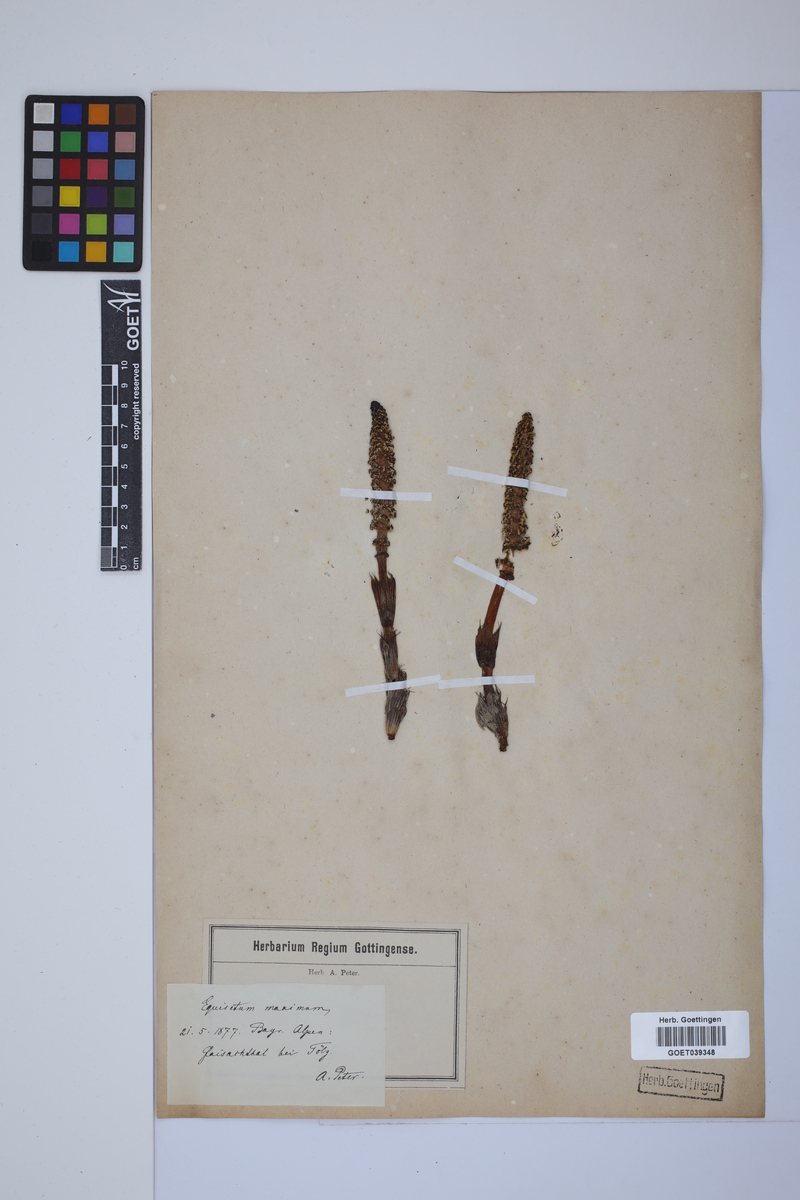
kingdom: Plantae
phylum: Tracheophyta
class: Polypodiopsida
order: Equisetales
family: Equisetaceae
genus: Equisetum
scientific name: Equisetum telmateia
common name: Great horsetail
